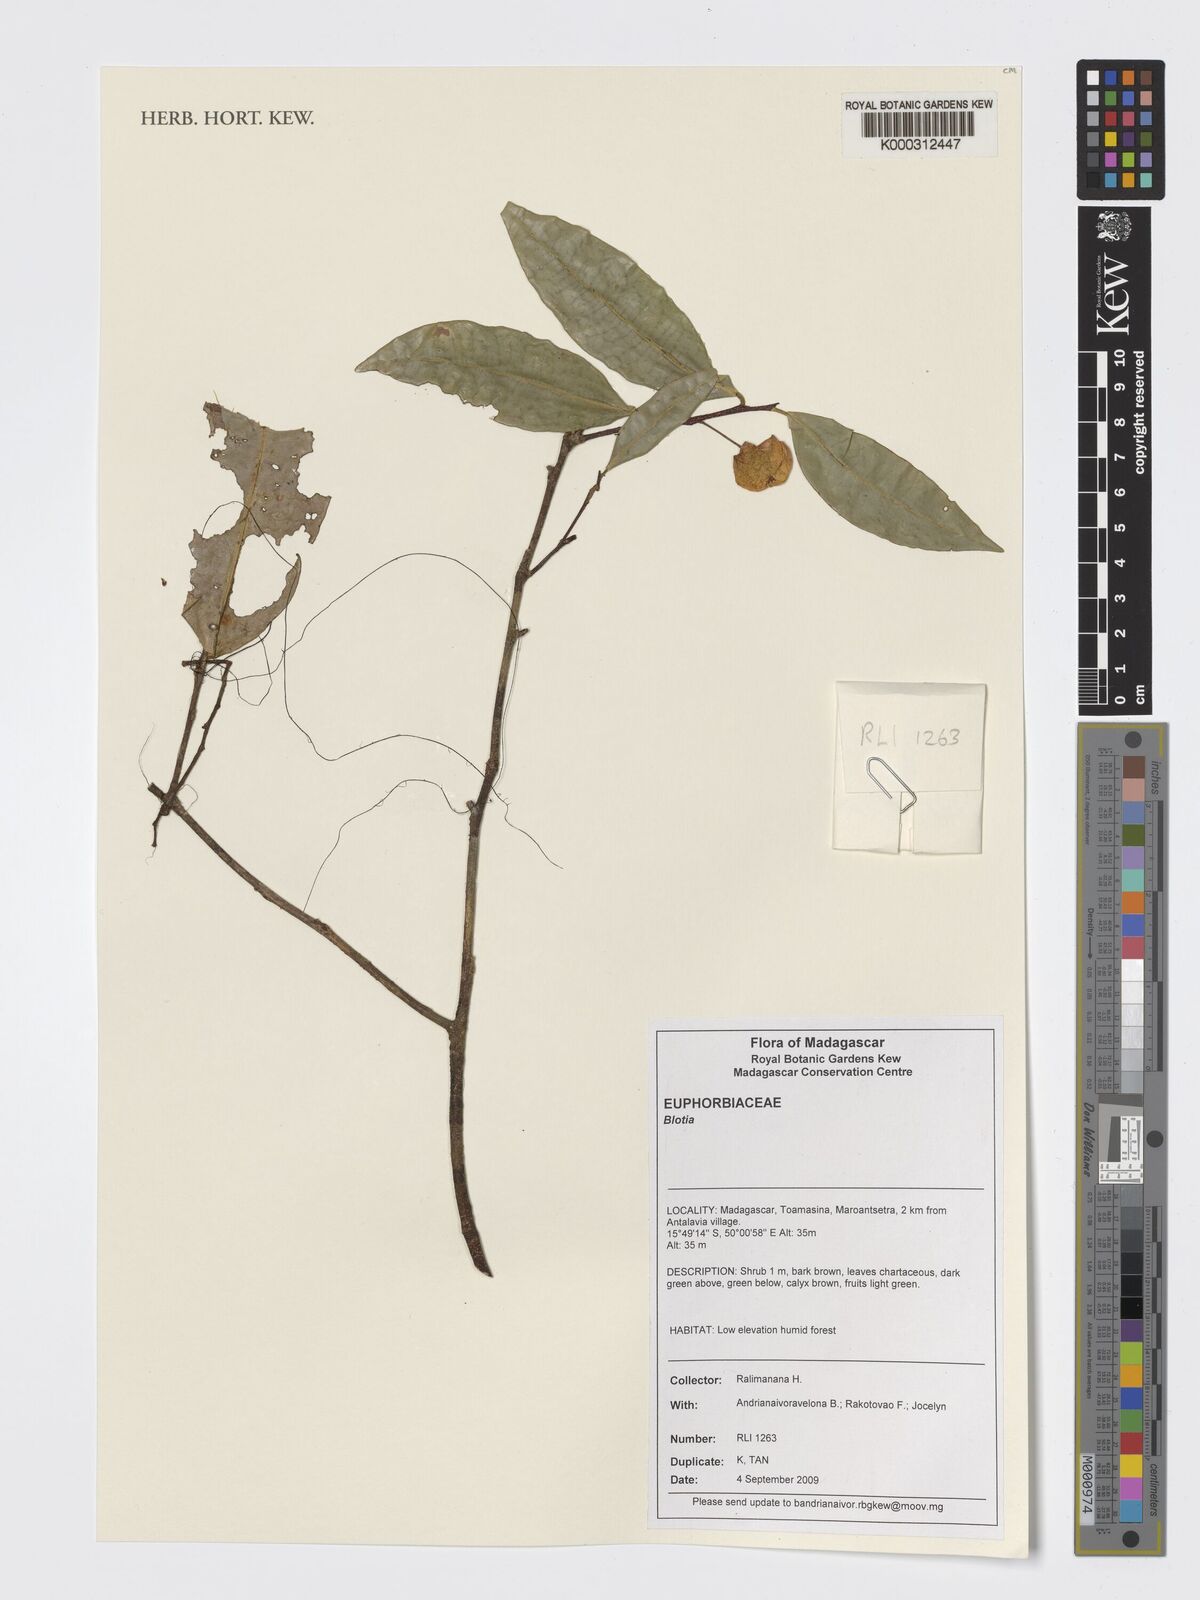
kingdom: Plantae
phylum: Tracheophyta
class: Magnoliopsida
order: Malpighiales
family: Phyllanthaceae
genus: Wielandia
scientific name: Wielandia
